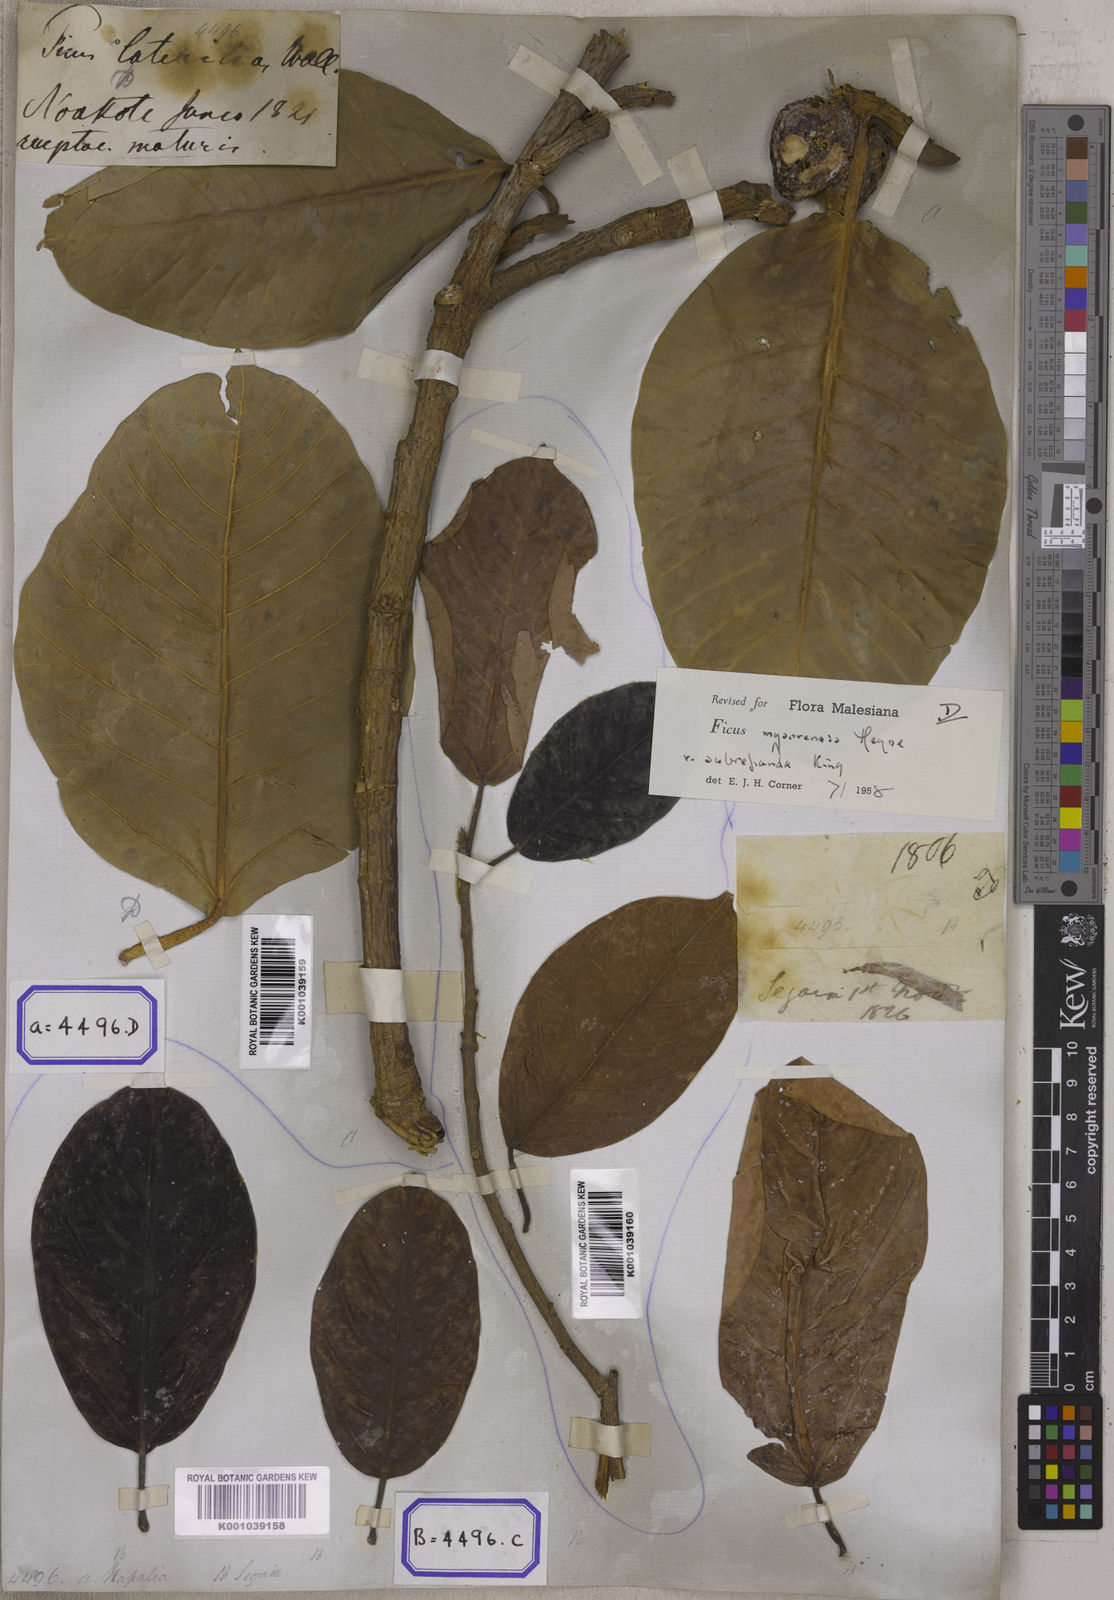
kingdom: Plantae
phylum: Tracheophyta
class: Magnoliopsida
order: Rosales
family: Moraceae
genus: Ficus
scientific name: Ficus drupacea
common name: Drupe fig
